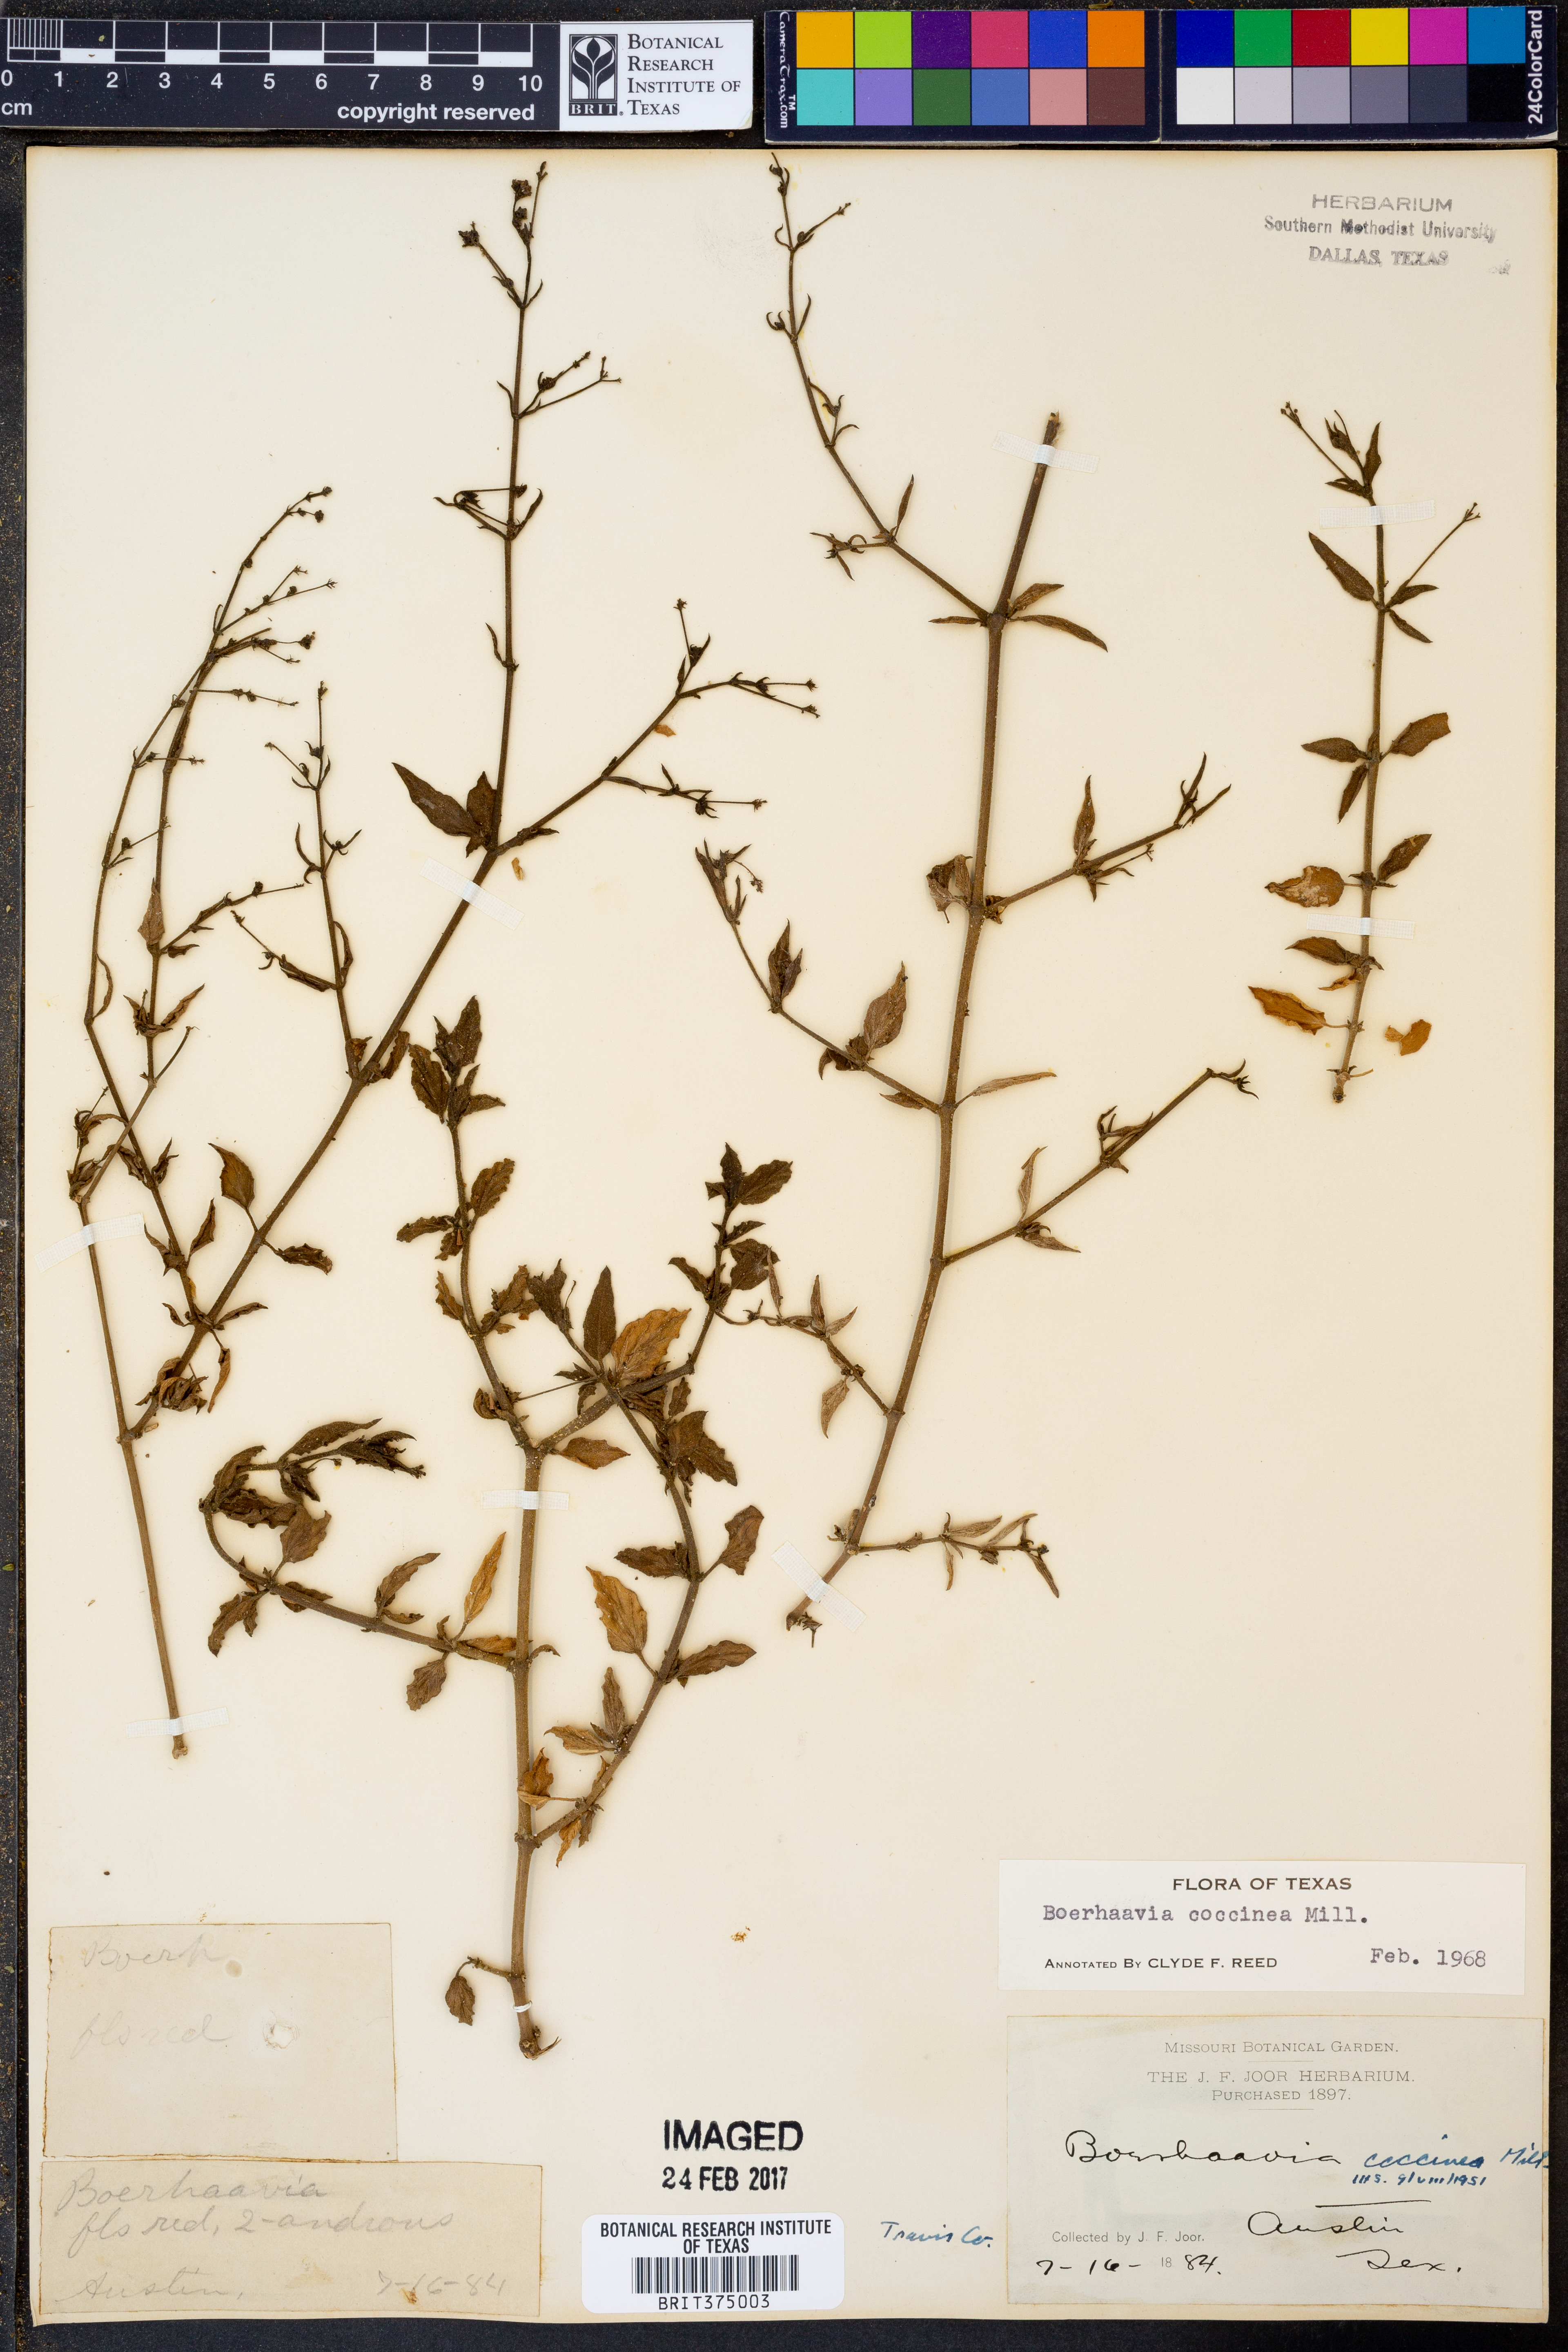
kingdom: Plantae
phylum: Tracheophyta
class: Magnoliopsida
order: Caryophyllales
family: Nyctaginaceae
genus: Boerhavia
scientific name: Boerhavia coccinea
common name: Scarlet spiderling
